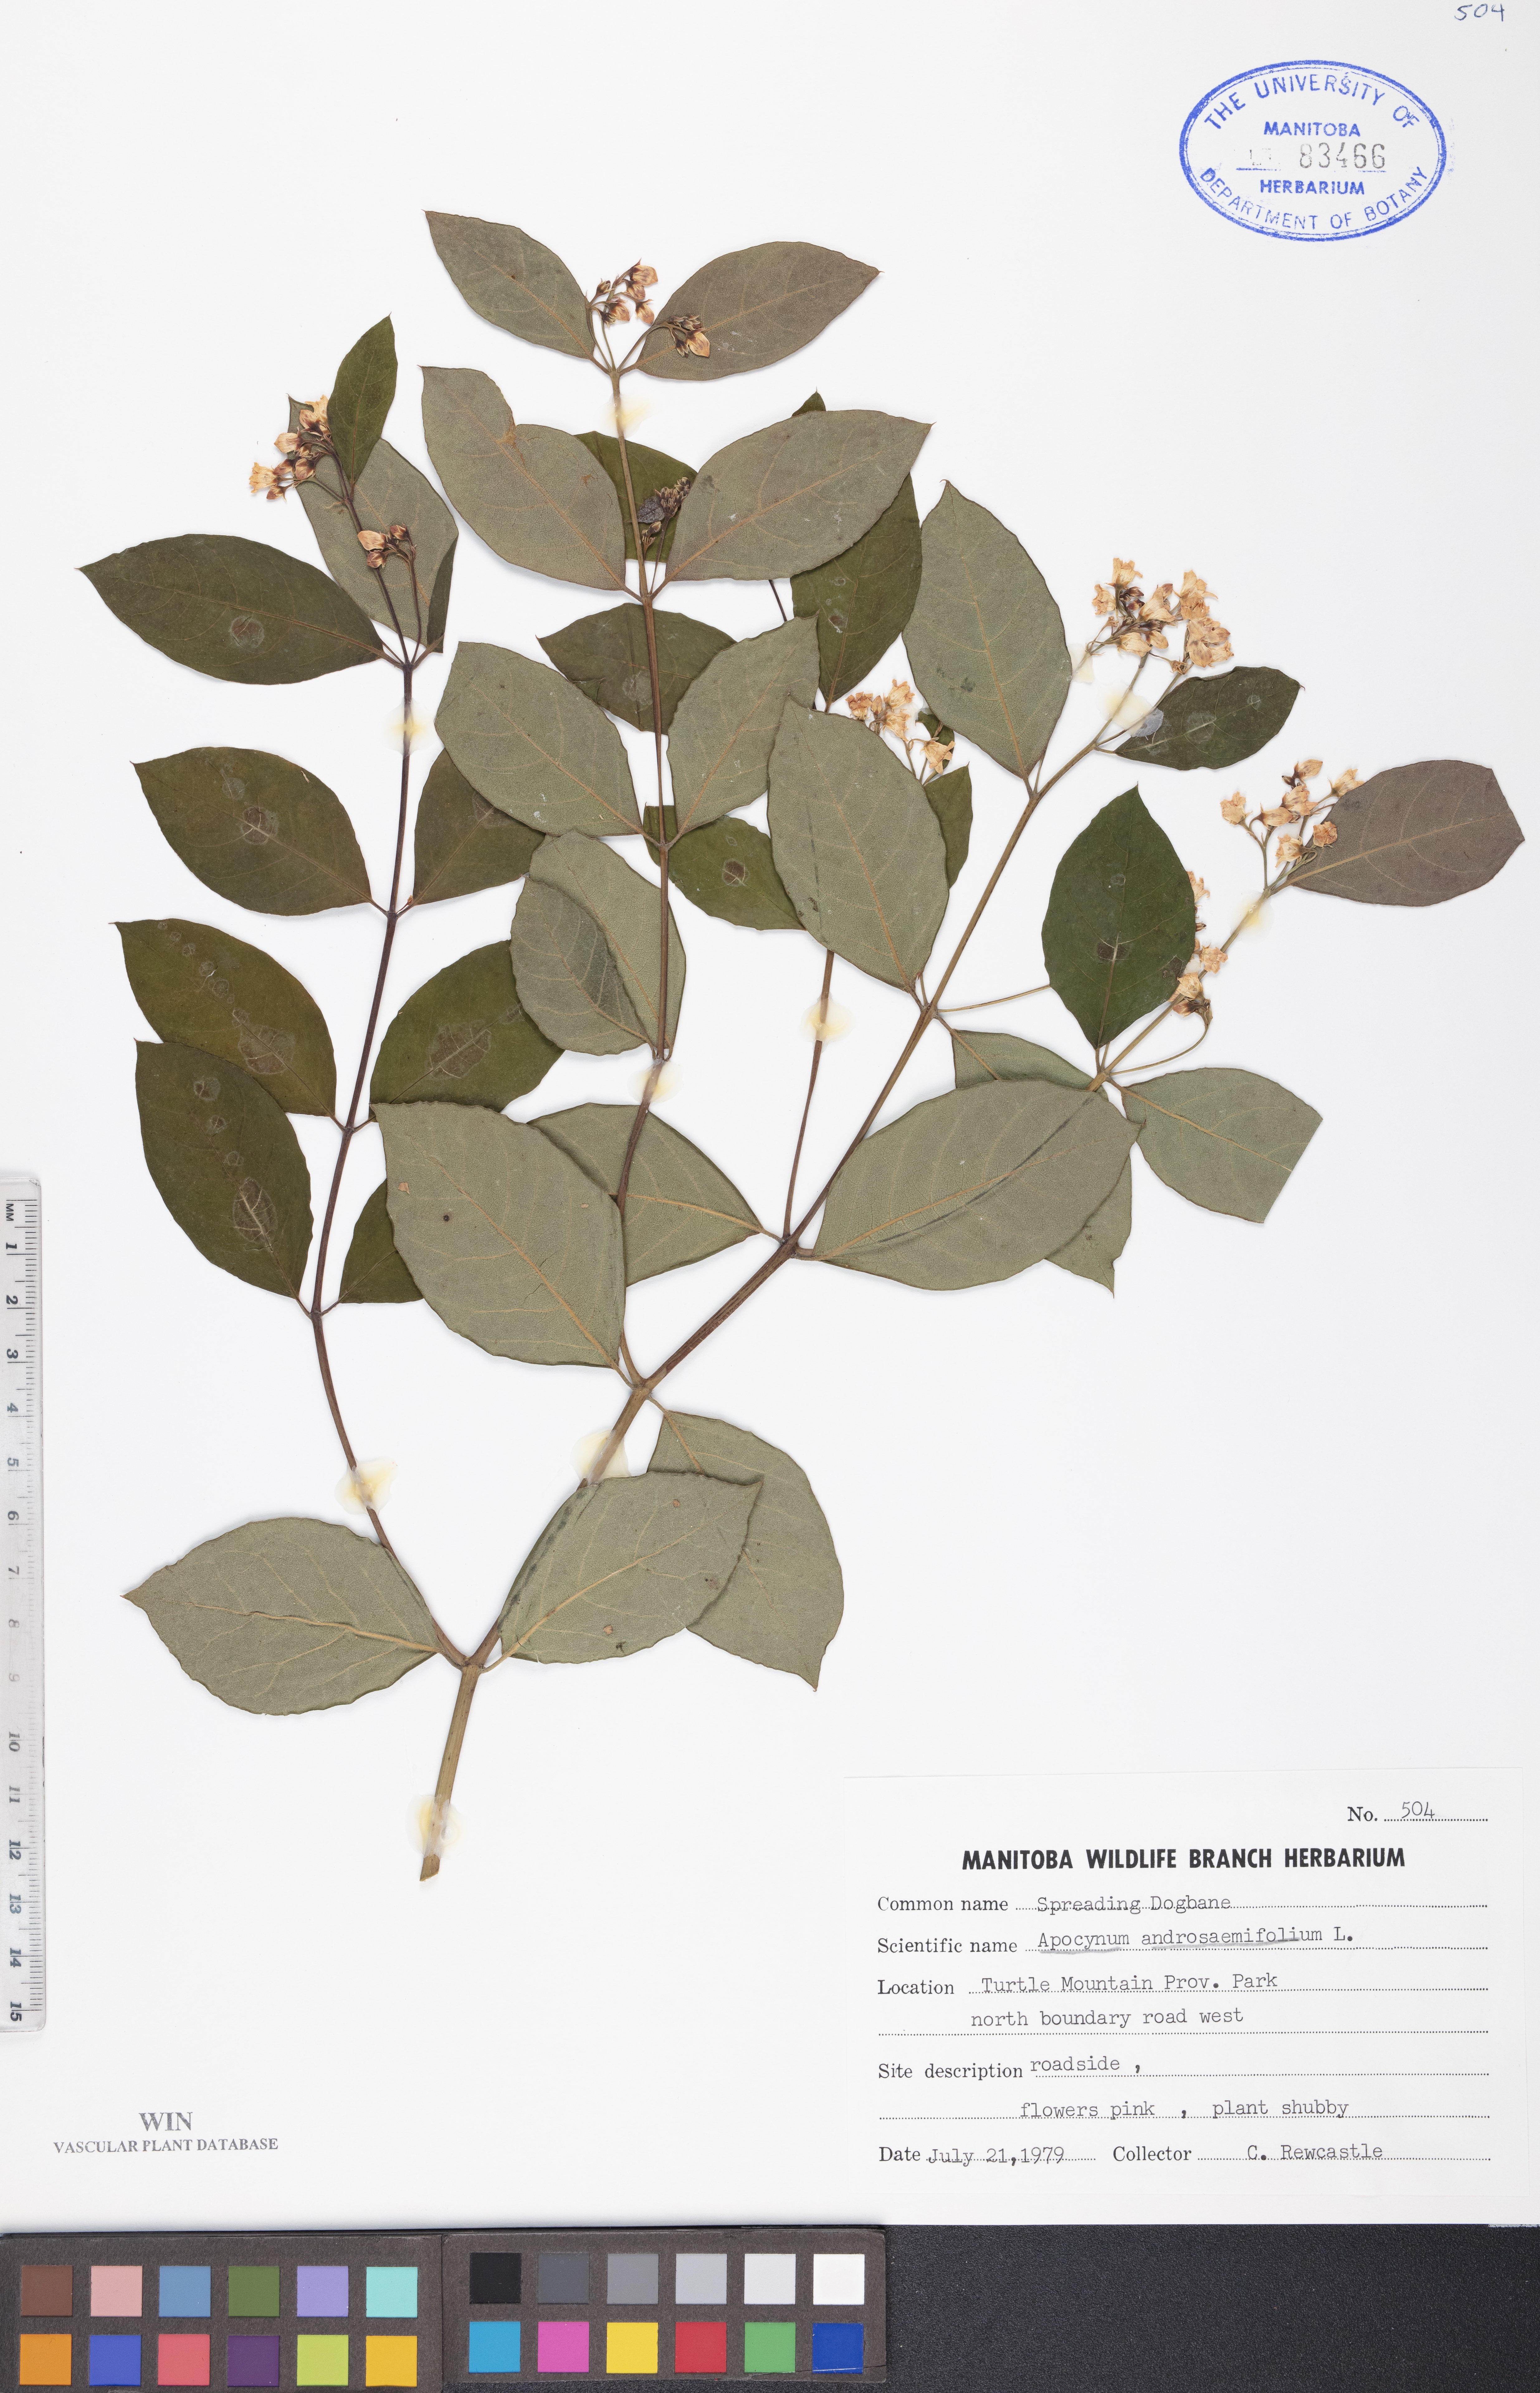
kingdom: Plantae
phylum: Tracheophyta
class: Magnoliopsida
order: Gentianales
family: Apocynaceae
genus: Apocynum
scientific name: Apocynum androsaemifolium
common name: Spreading dogbane
